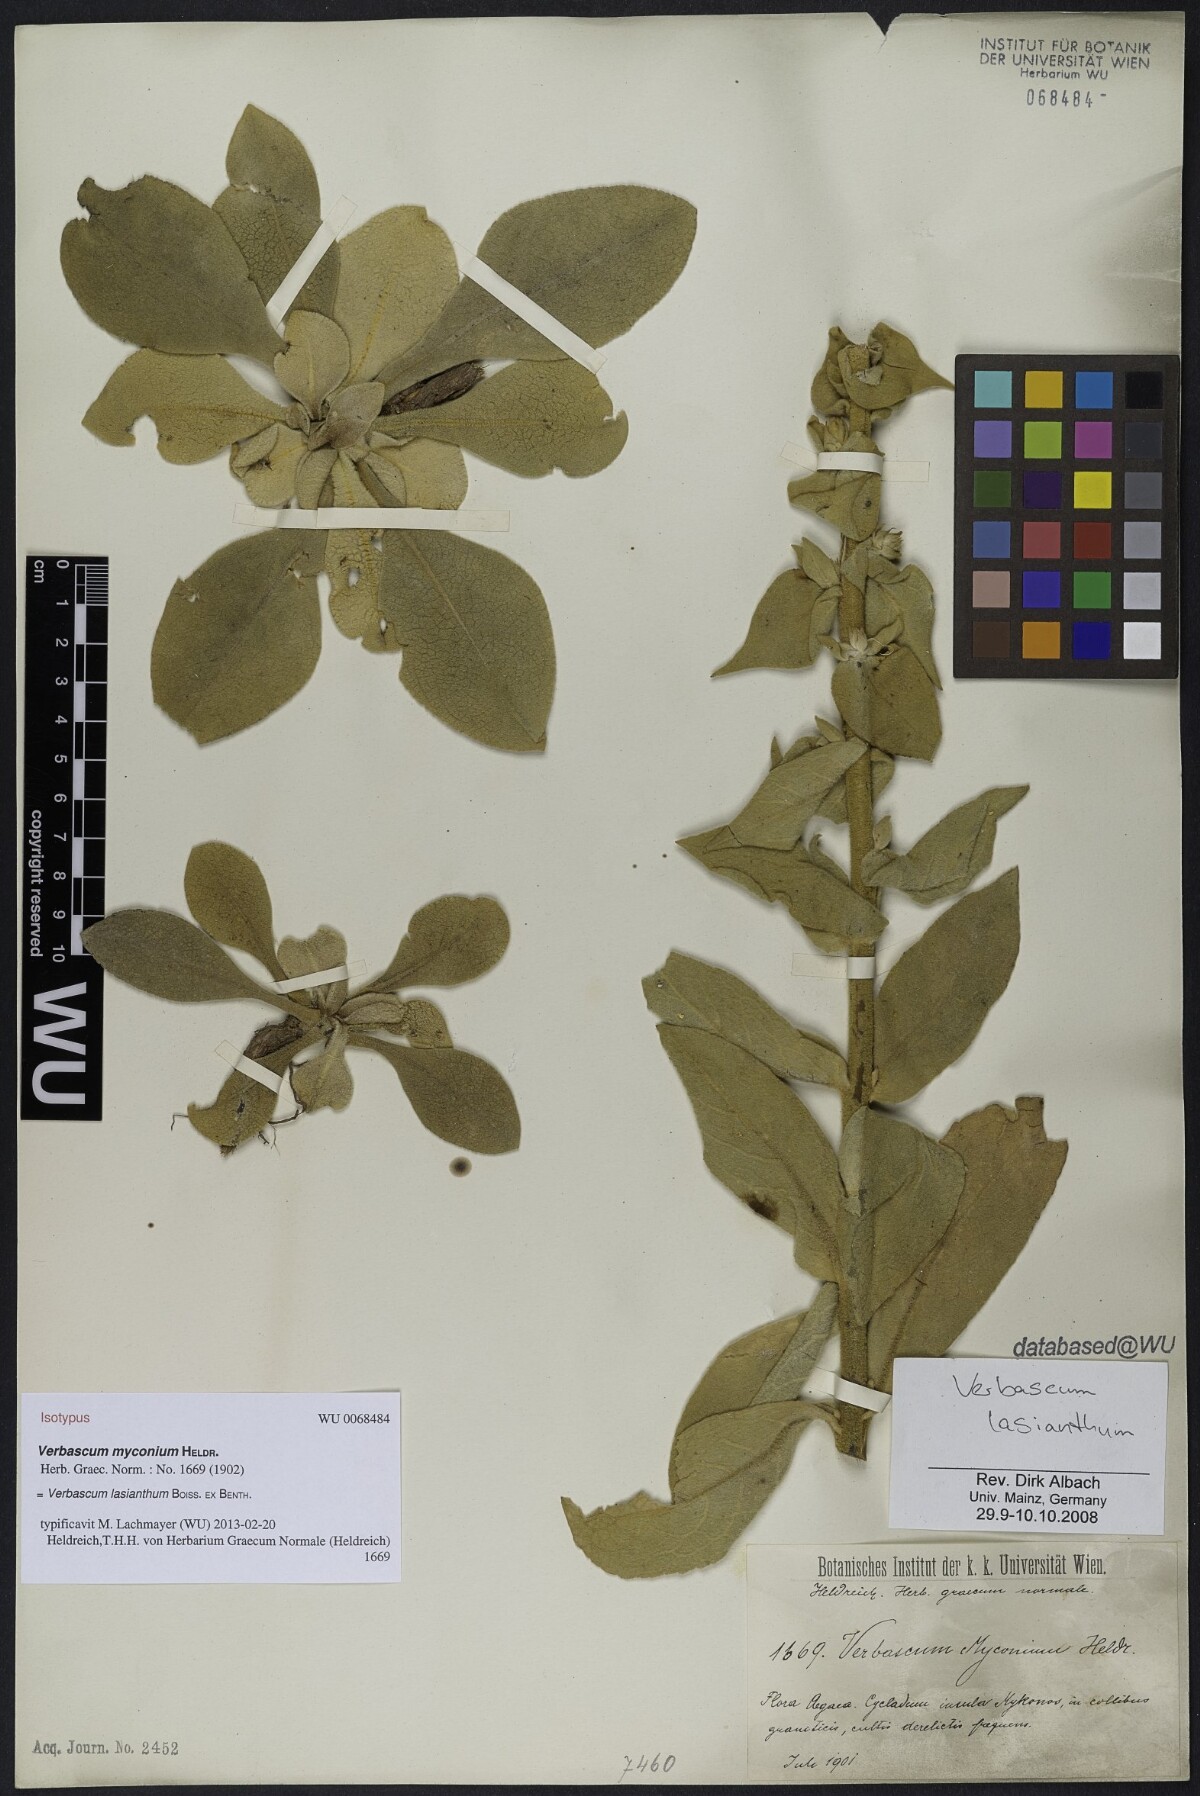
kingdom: Plantae
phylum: Tracheophyta
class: Magnoliopsida
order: Lamiales
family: Scrophulariaceae
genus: Verbascum
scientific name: Verbascum lasianthum
